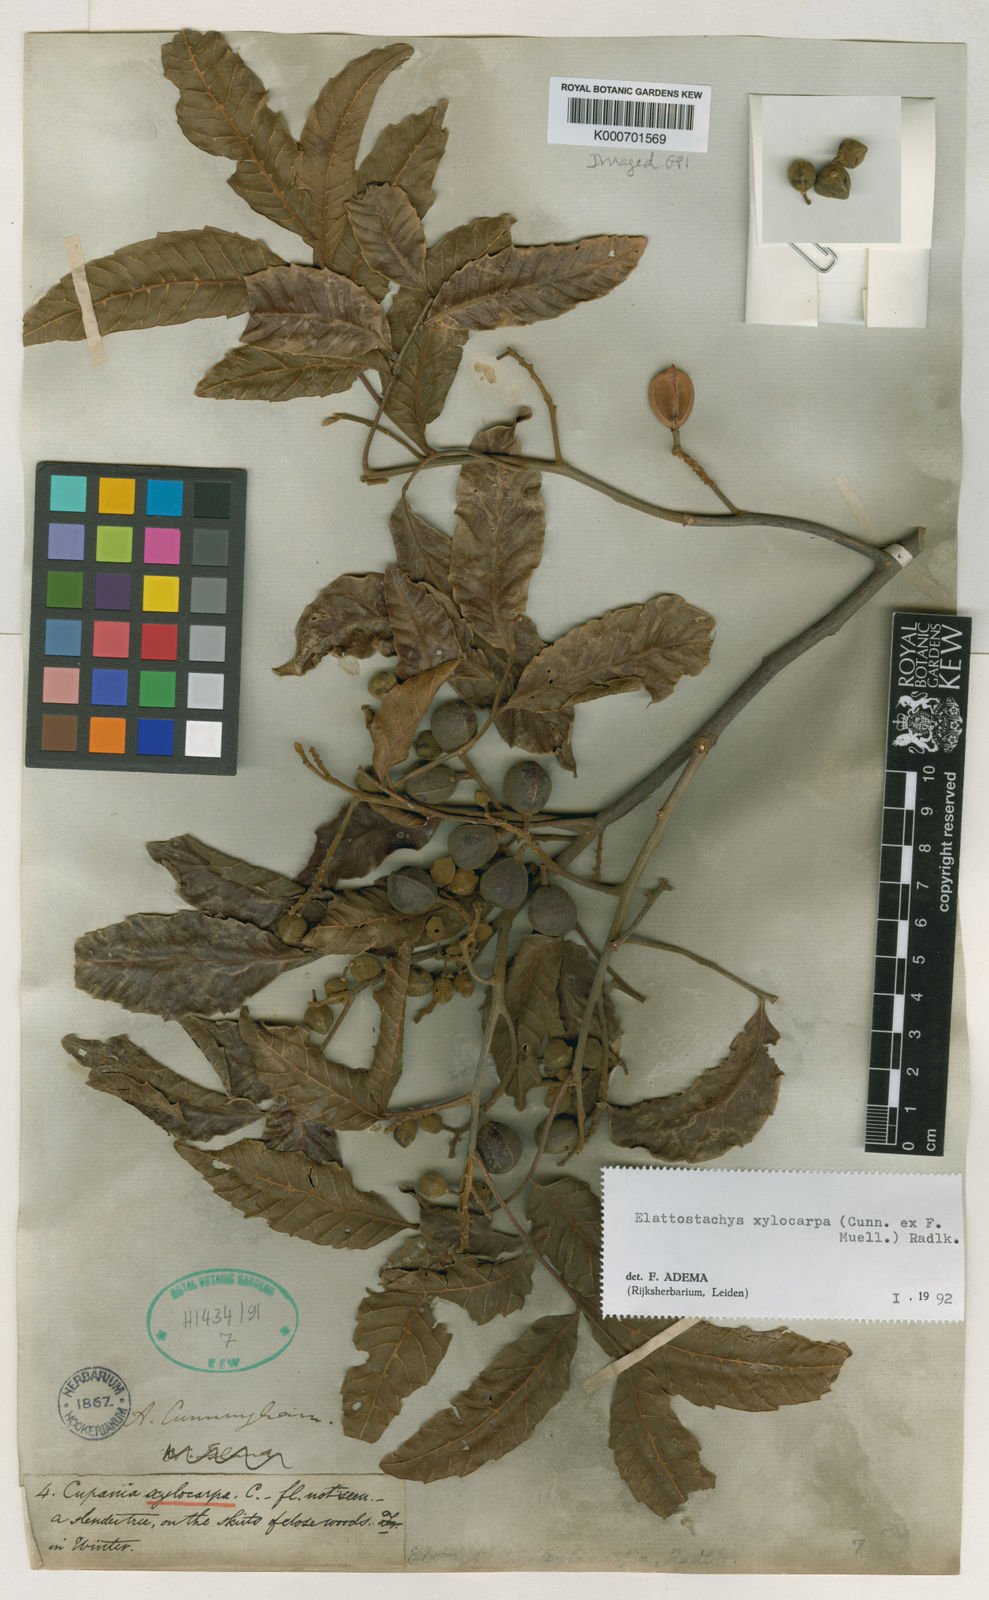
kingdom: Plantae
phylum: Tracheophyta
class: Magnoliopsida
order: Sapindales
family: Sapindaceae
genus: Elattostachys
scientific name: Elattostachys xylocarpa
